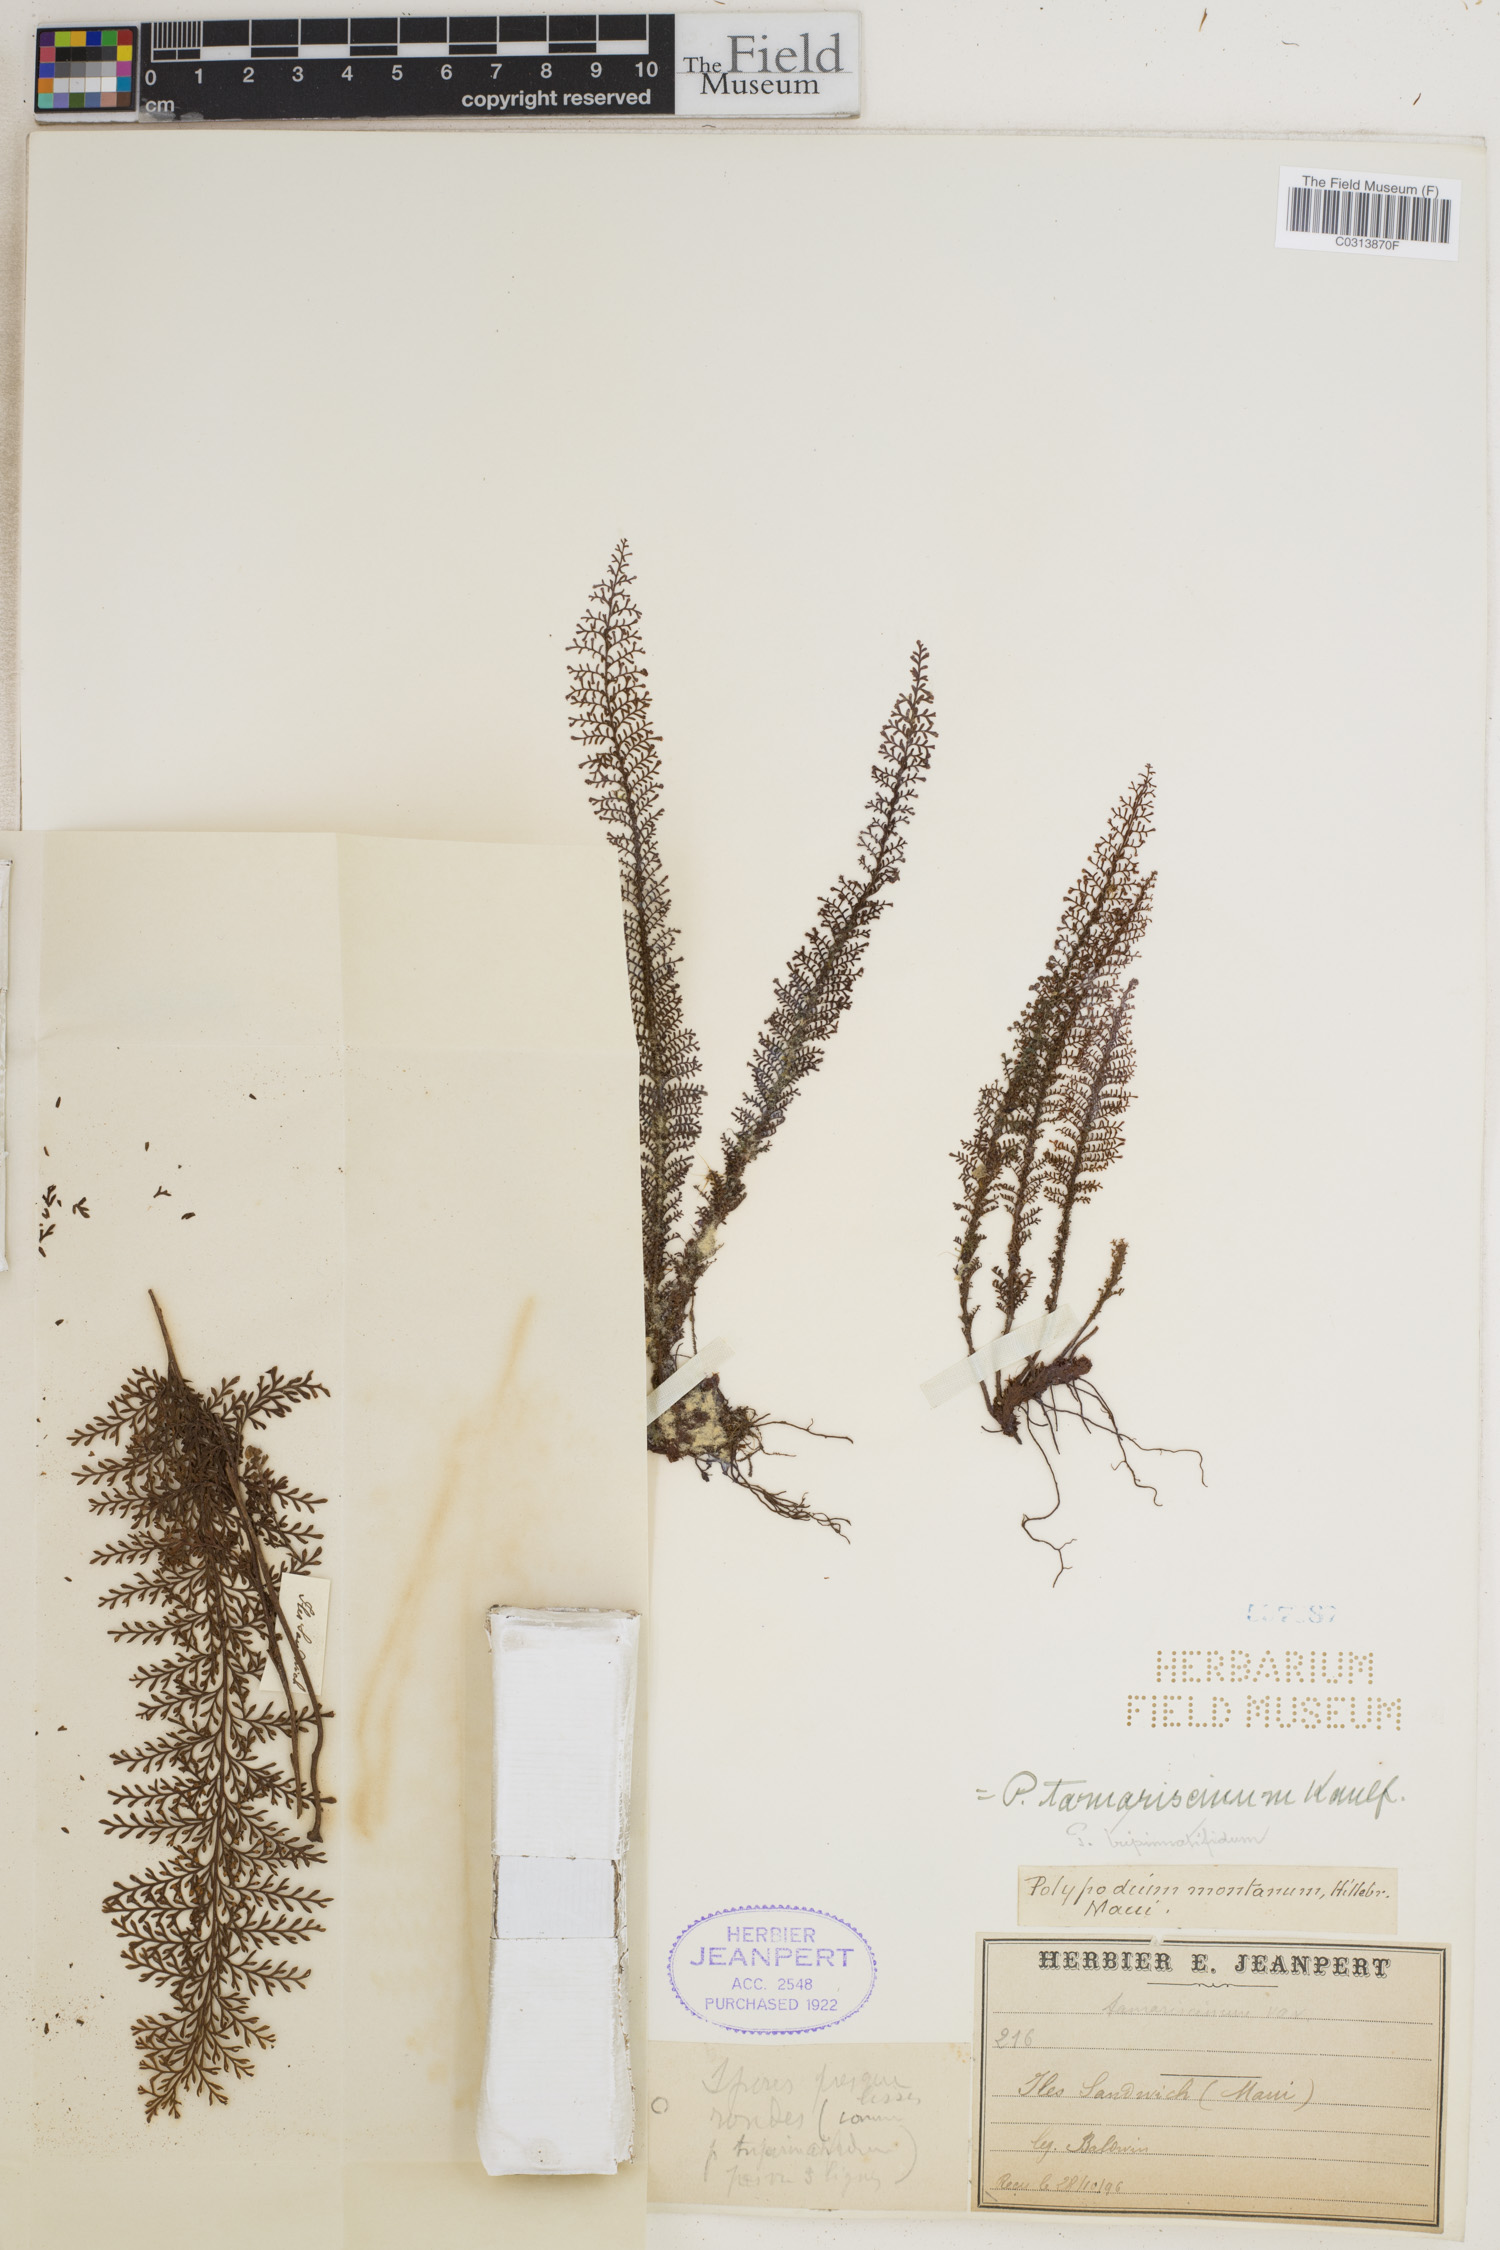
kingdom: Plantae
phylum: Tracheophyta
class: Polypodiopsida
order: Polypodiales
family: Polypodiaceae
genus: Adenophorus
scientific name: Adenophorus tamariscinus
